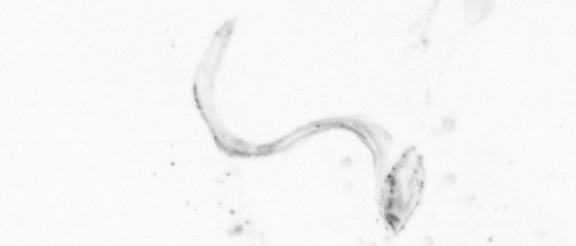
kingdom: Animalia
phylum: Chordata
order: Copelata
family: Fritillariidae
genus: Appendicularia
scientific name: Appendicularia
